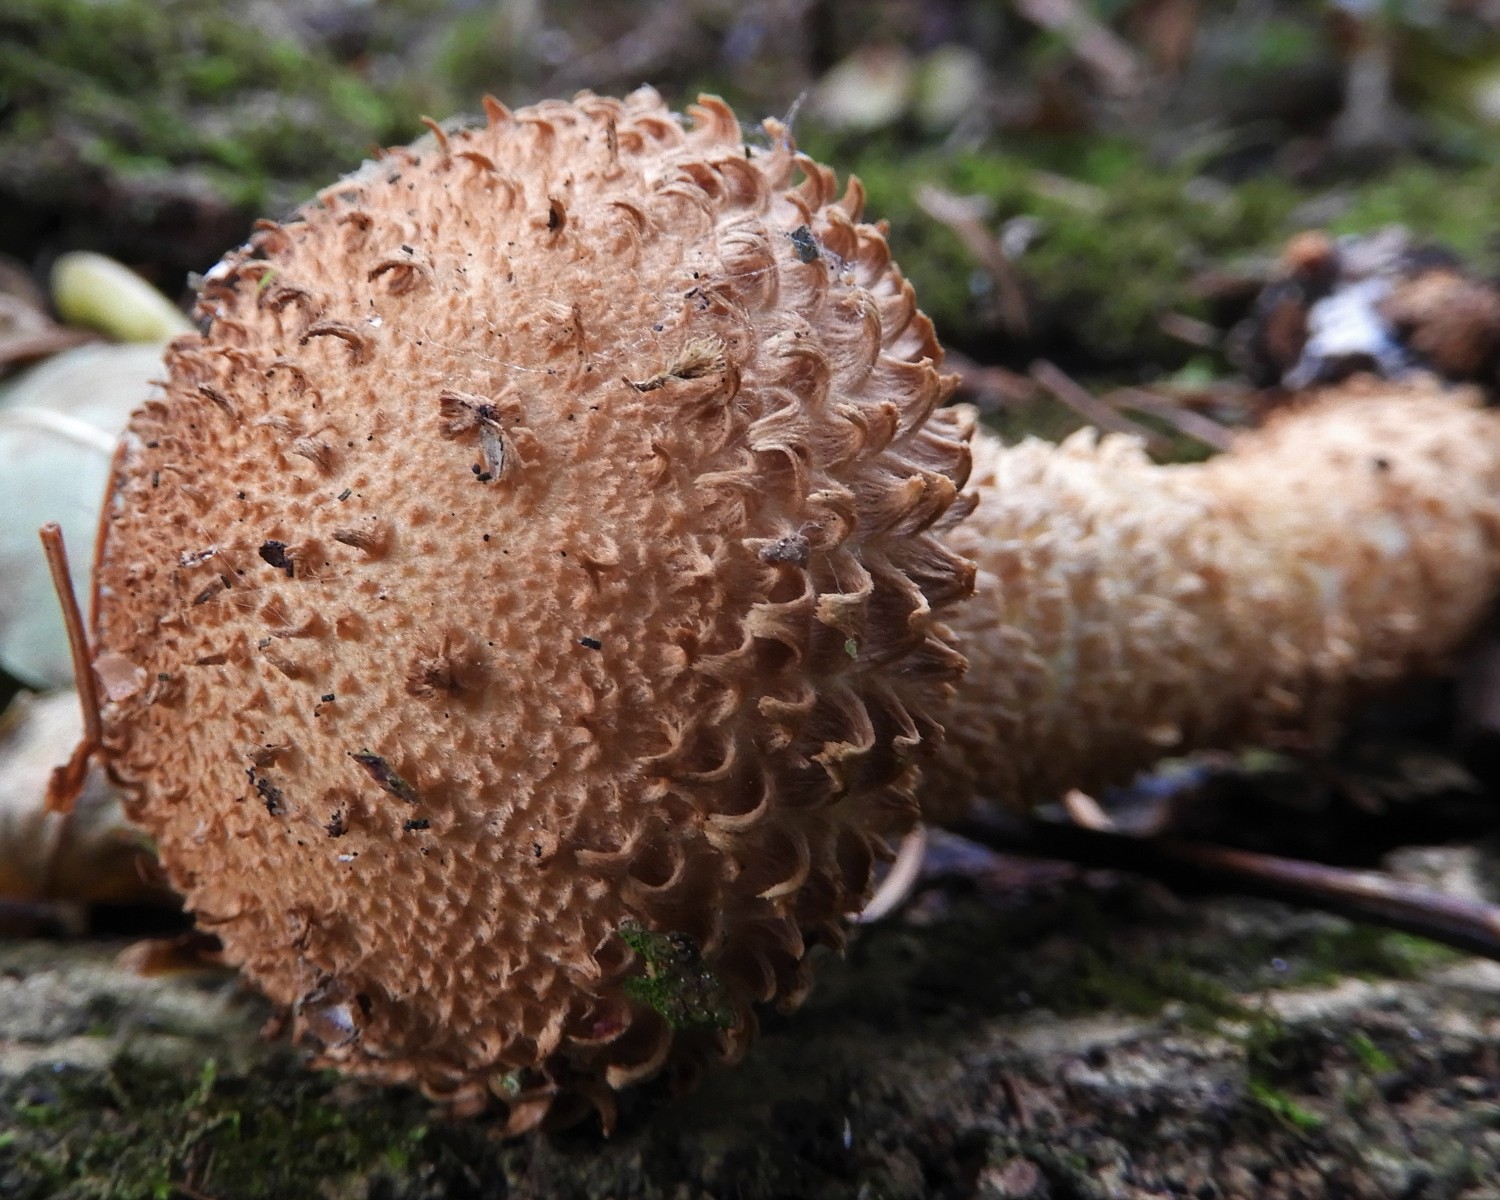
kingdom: Fungi
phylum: Basidiomycota
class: Agaricomycetes
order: Agaricales
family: Strophariaceae
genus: Pholiota
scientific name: Pholiota squarrosa
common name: krumskællet skælhat
